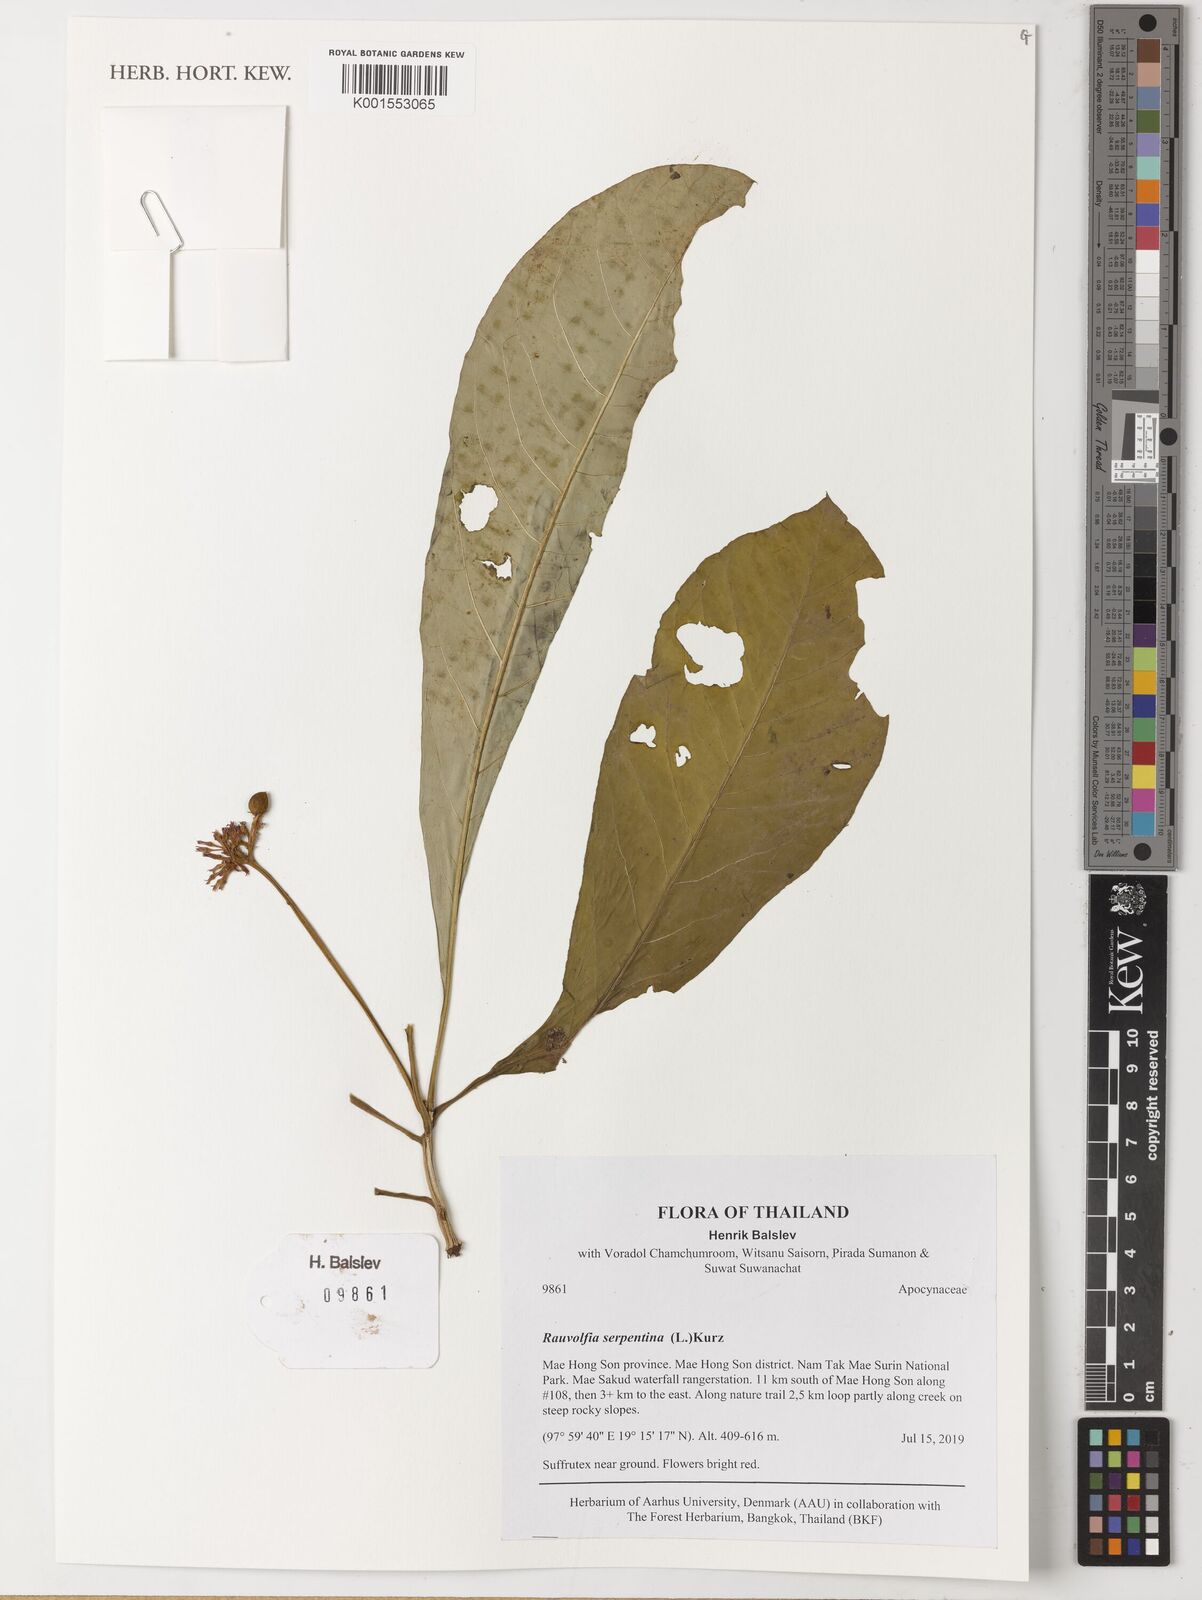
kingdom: Plantae
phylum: Tracheophyta
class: Magnoliopsida
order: Gentianales
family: Apocynaceae
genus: Rauvolfia
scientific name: Rauvolfia serpentina
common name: Ajmaline
